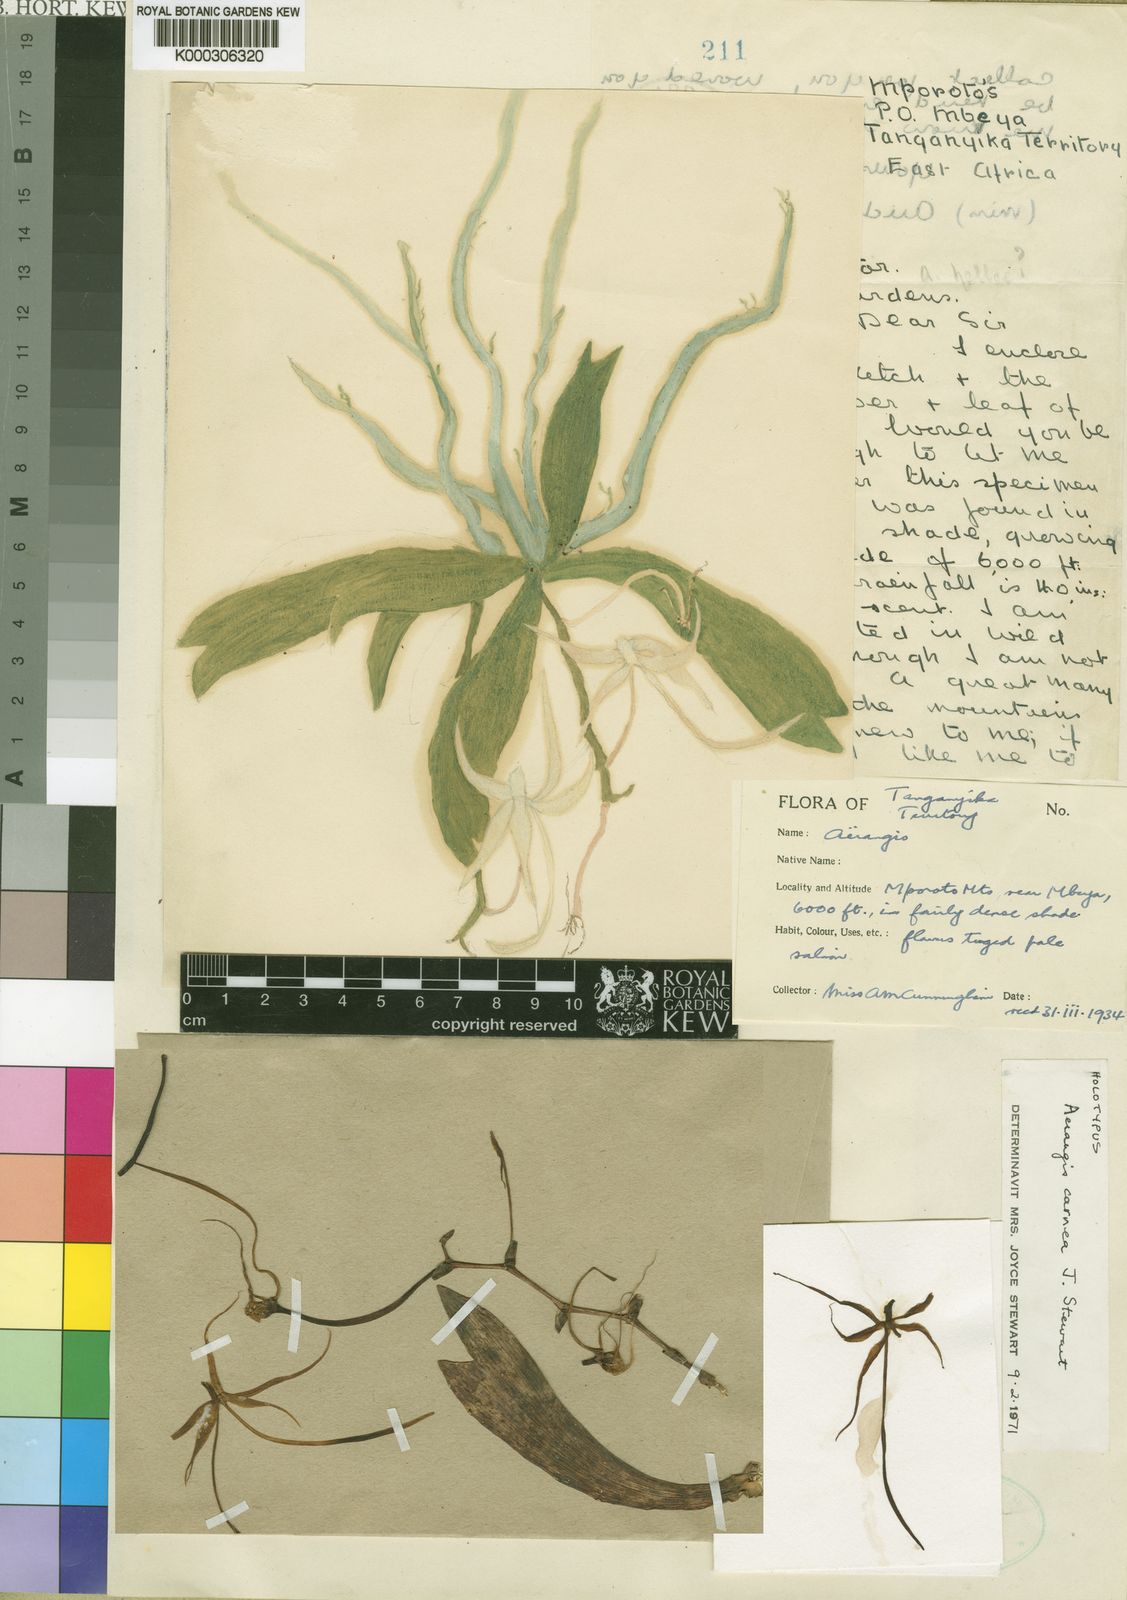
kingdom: Plantae
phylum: Tracheophyta
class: Liliopsida
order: Asparagales
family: Orchidaceae
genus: Aerangis
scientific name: Aerangis carnea
